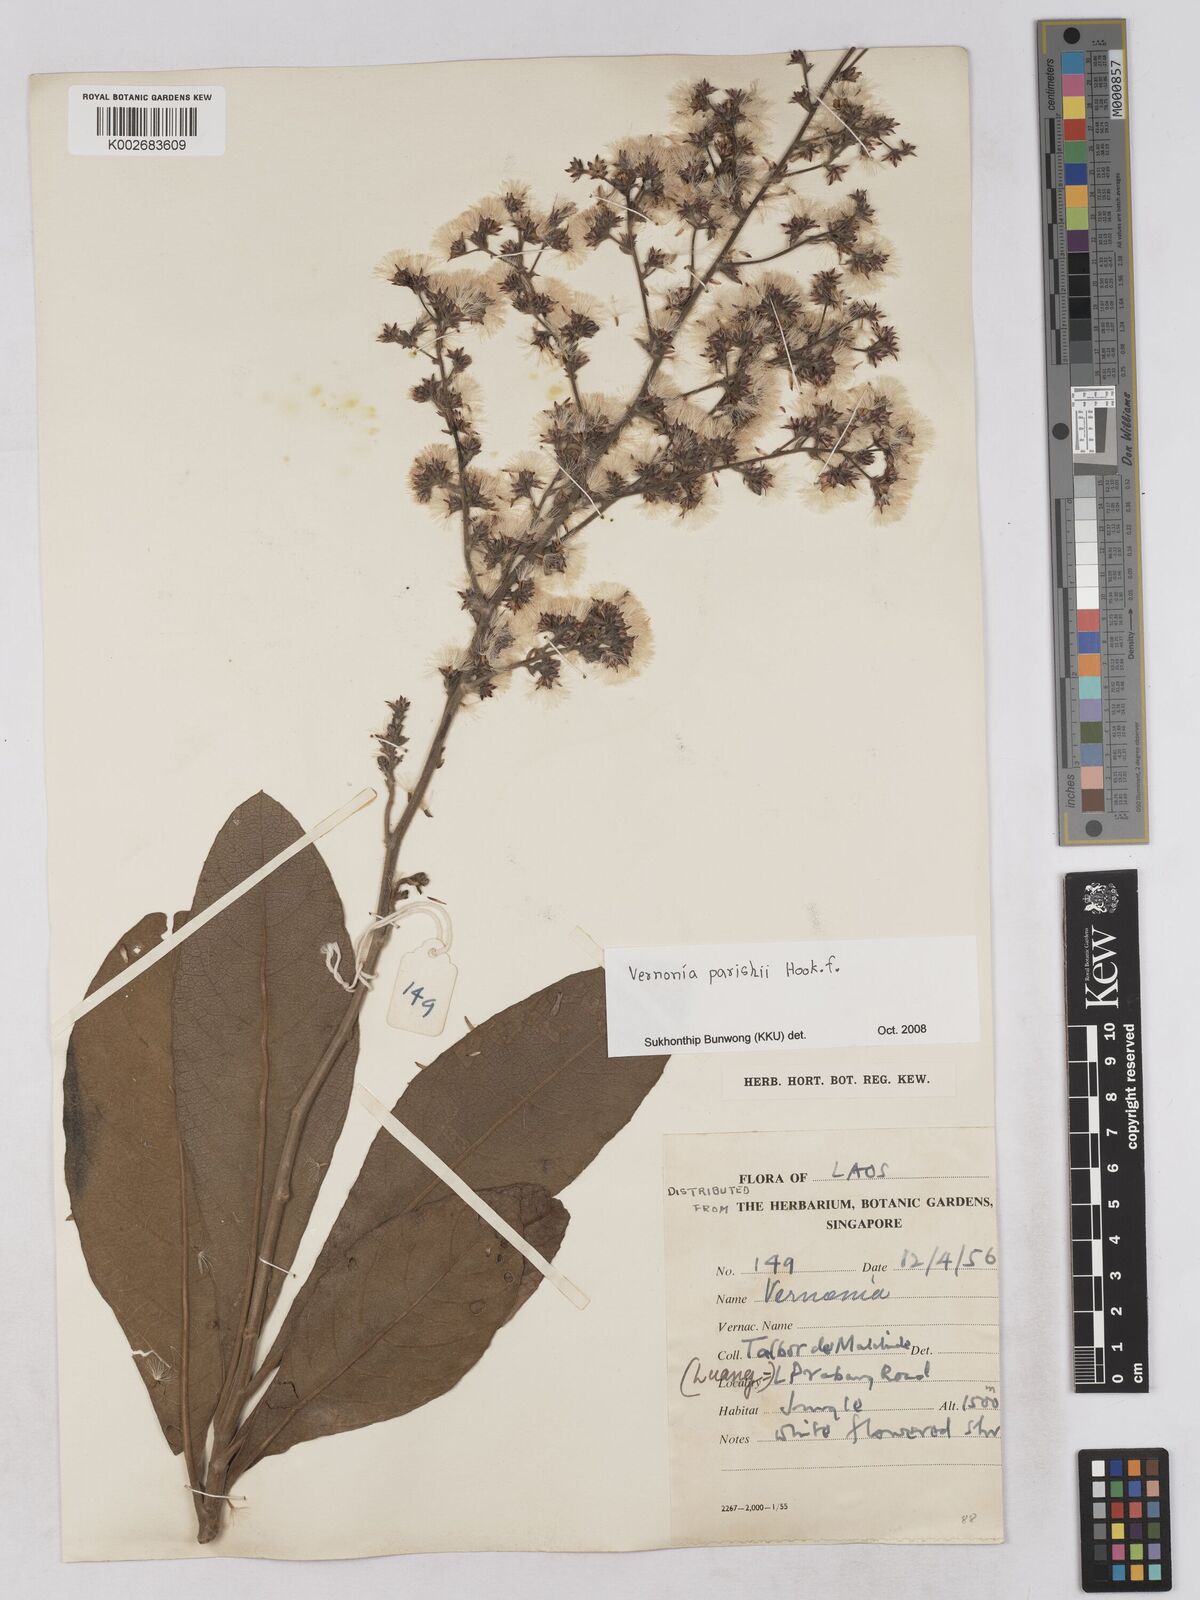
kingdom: Plantae
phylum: Tracheophyta
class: Magnoliopsida
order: Asterales
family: Asteraceae
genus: Monosis
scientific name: Monosis parishii
